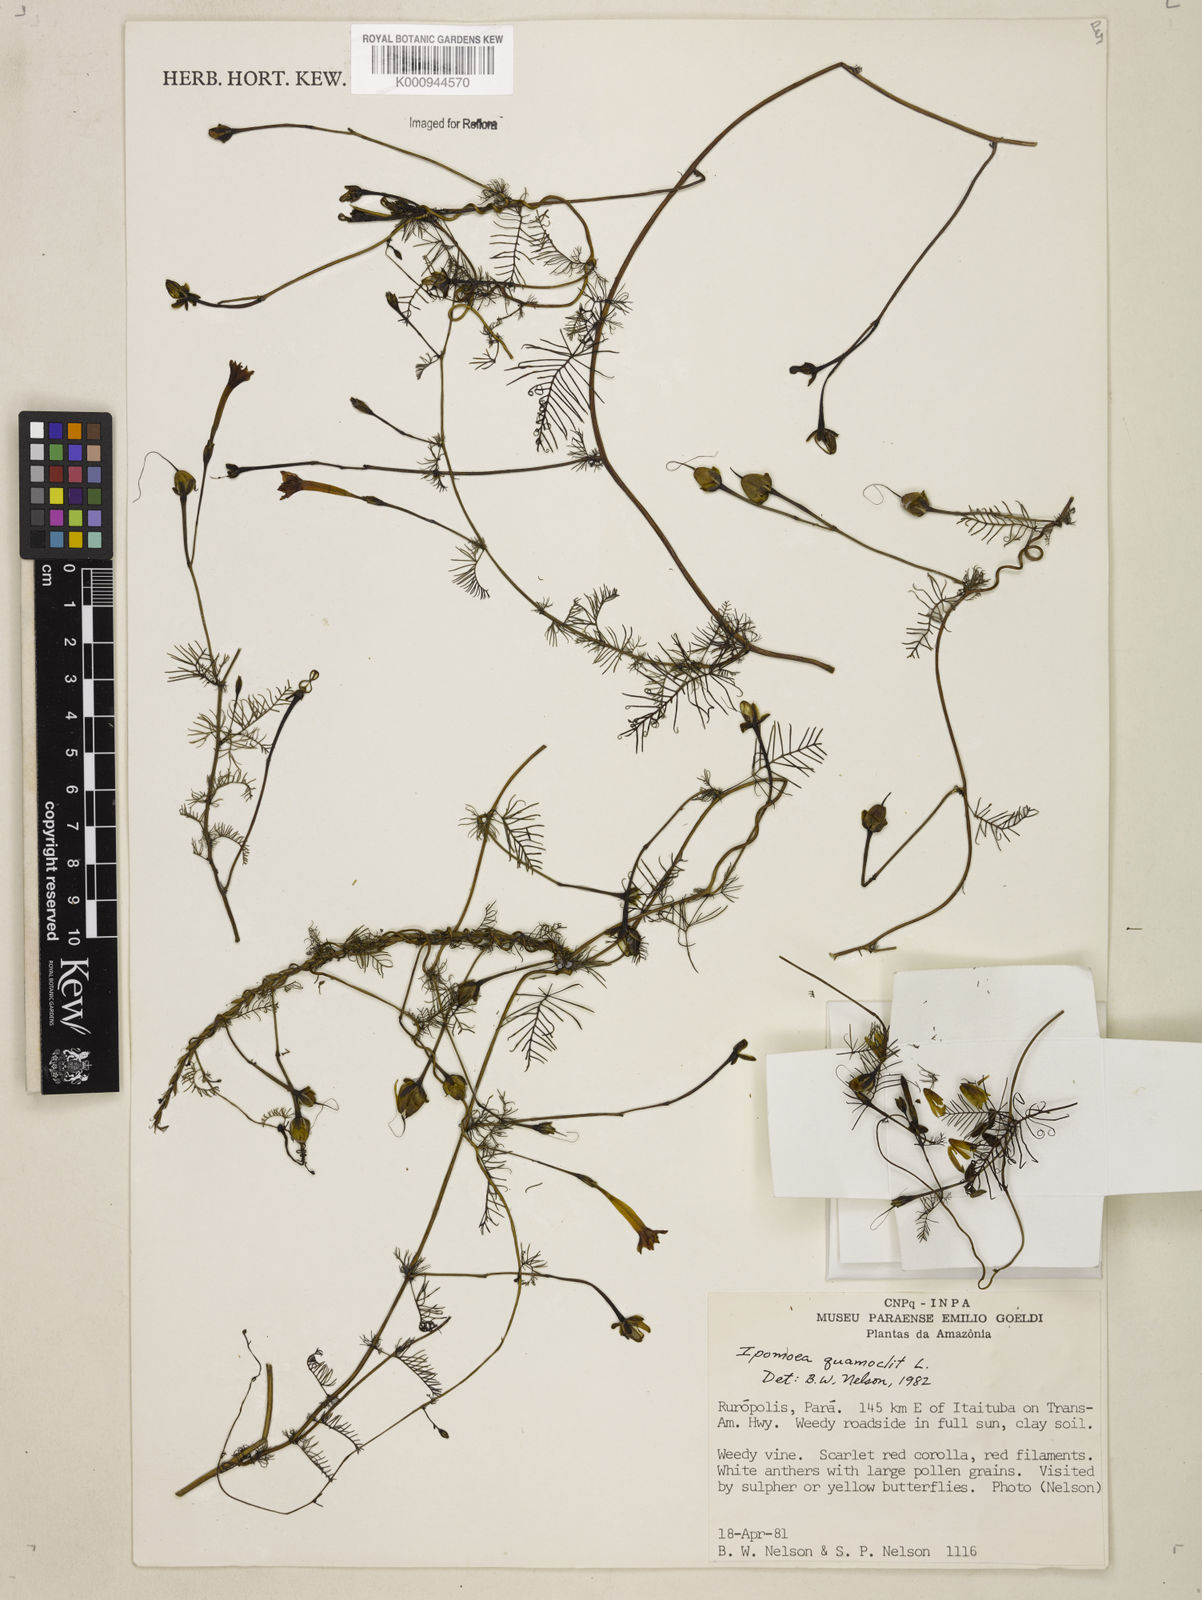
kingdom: Plantae
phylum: Tracheophyta
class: Magnoliopsida
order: Solanales
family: Convolvulaceae
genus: Ipomoea
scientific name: Ipomoea quamoclit
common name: Cypress vine
